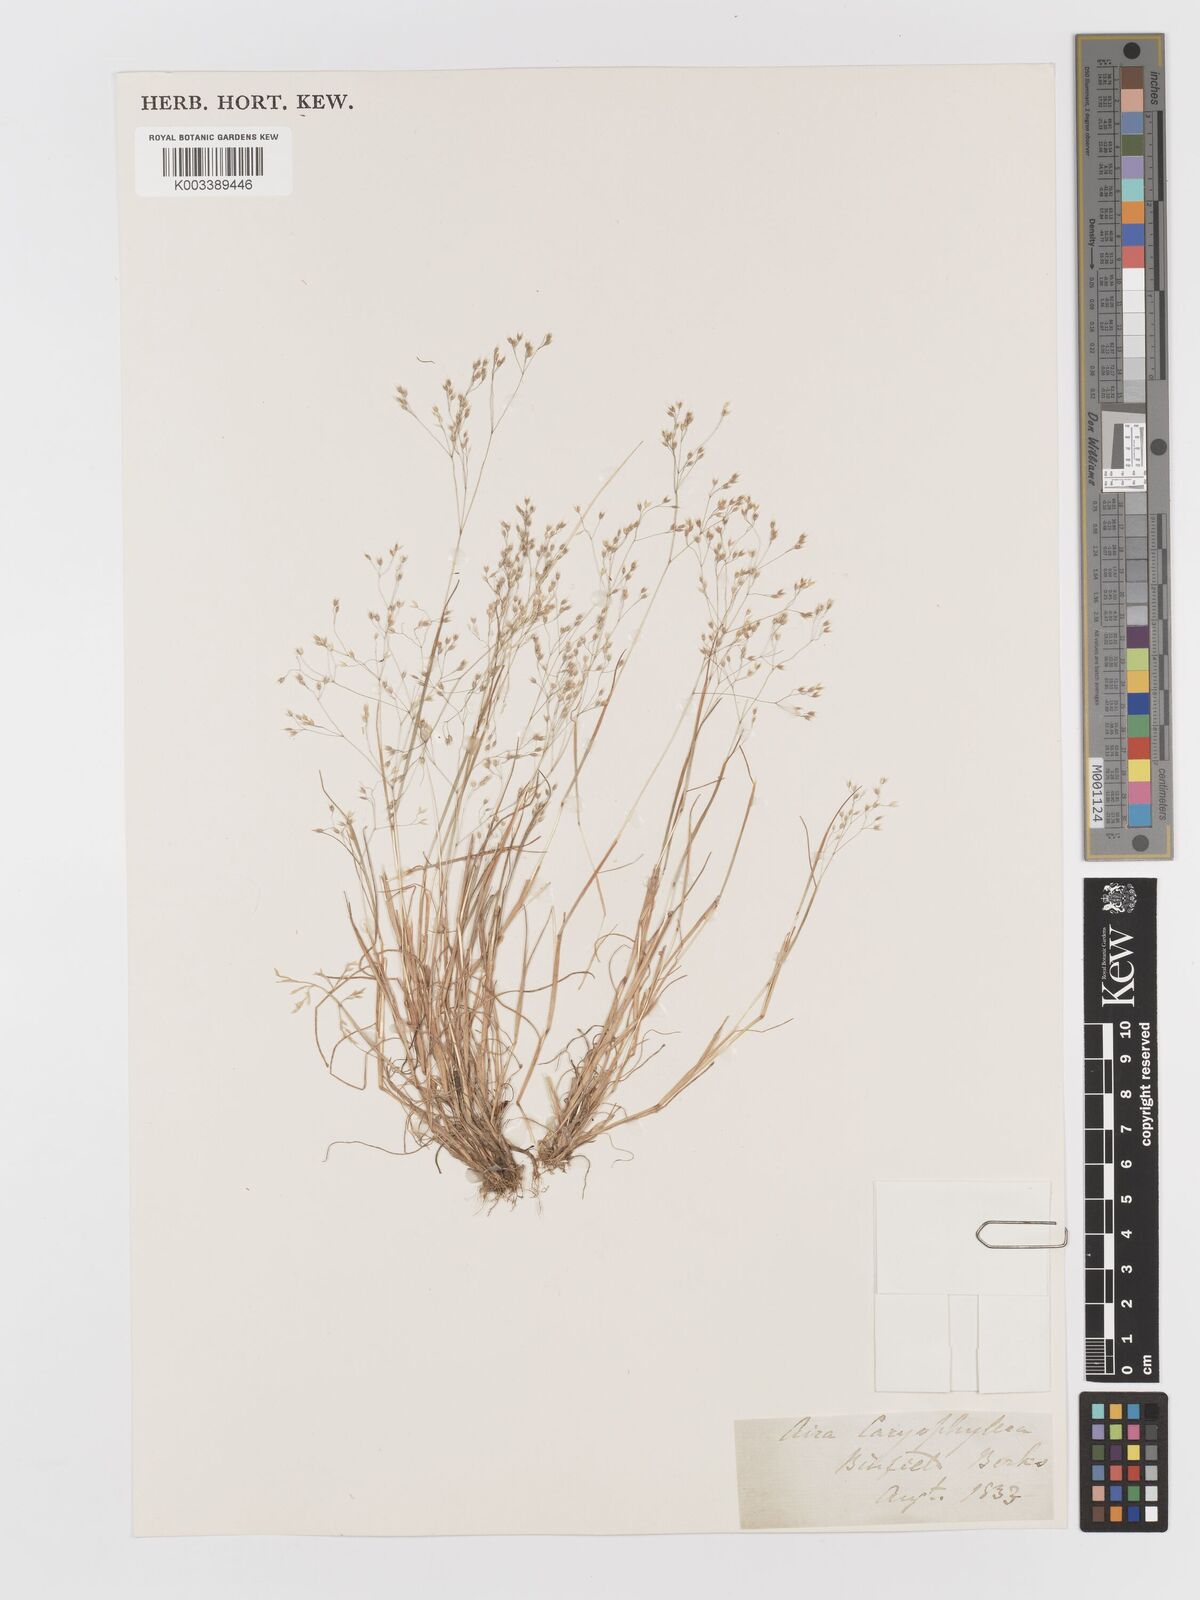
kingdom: Plantae
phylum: Tracheophyta
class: Liliopsida
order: Poales
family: Poaceae
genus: Aira
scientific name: Aira caryophyllea
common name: Silver hairgrass
